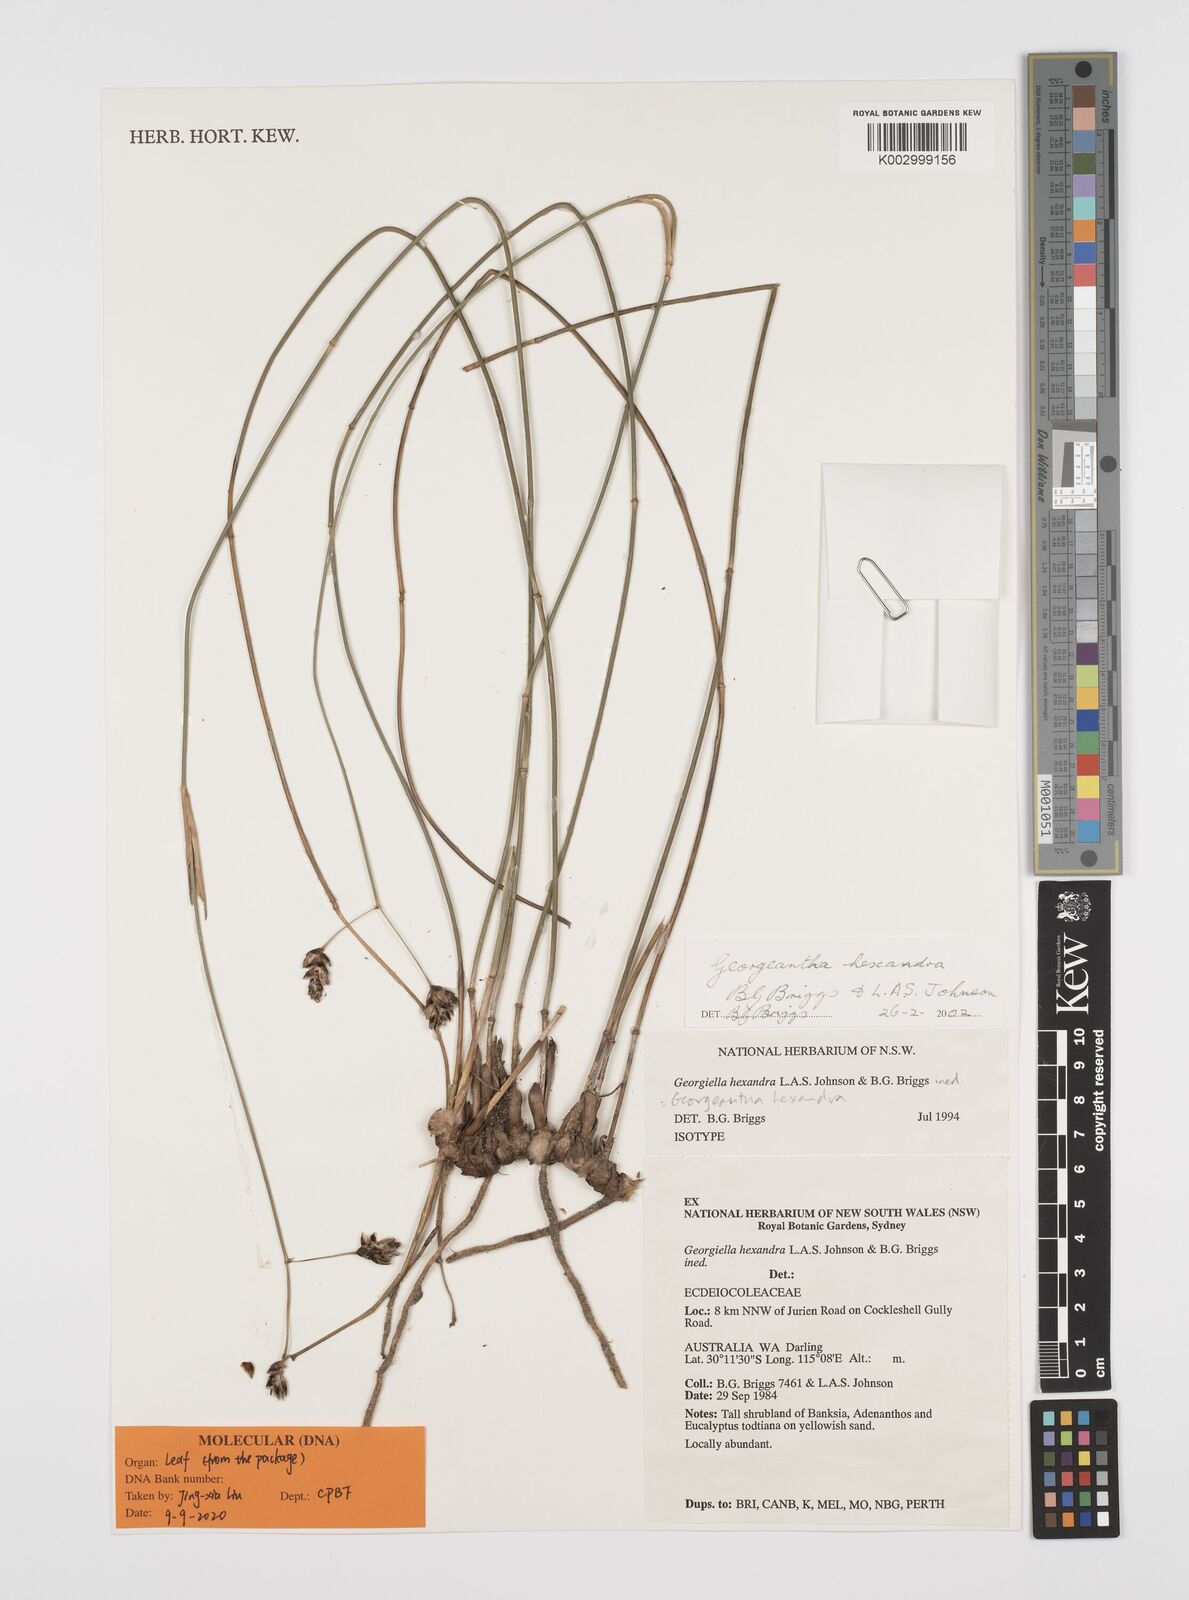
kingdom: Plantae
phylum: Tracheophyta
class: Liliopsida
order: Poales
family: Ecdeiocoleaceae
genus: Georgeantha
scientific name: Georgeantha hexandra
